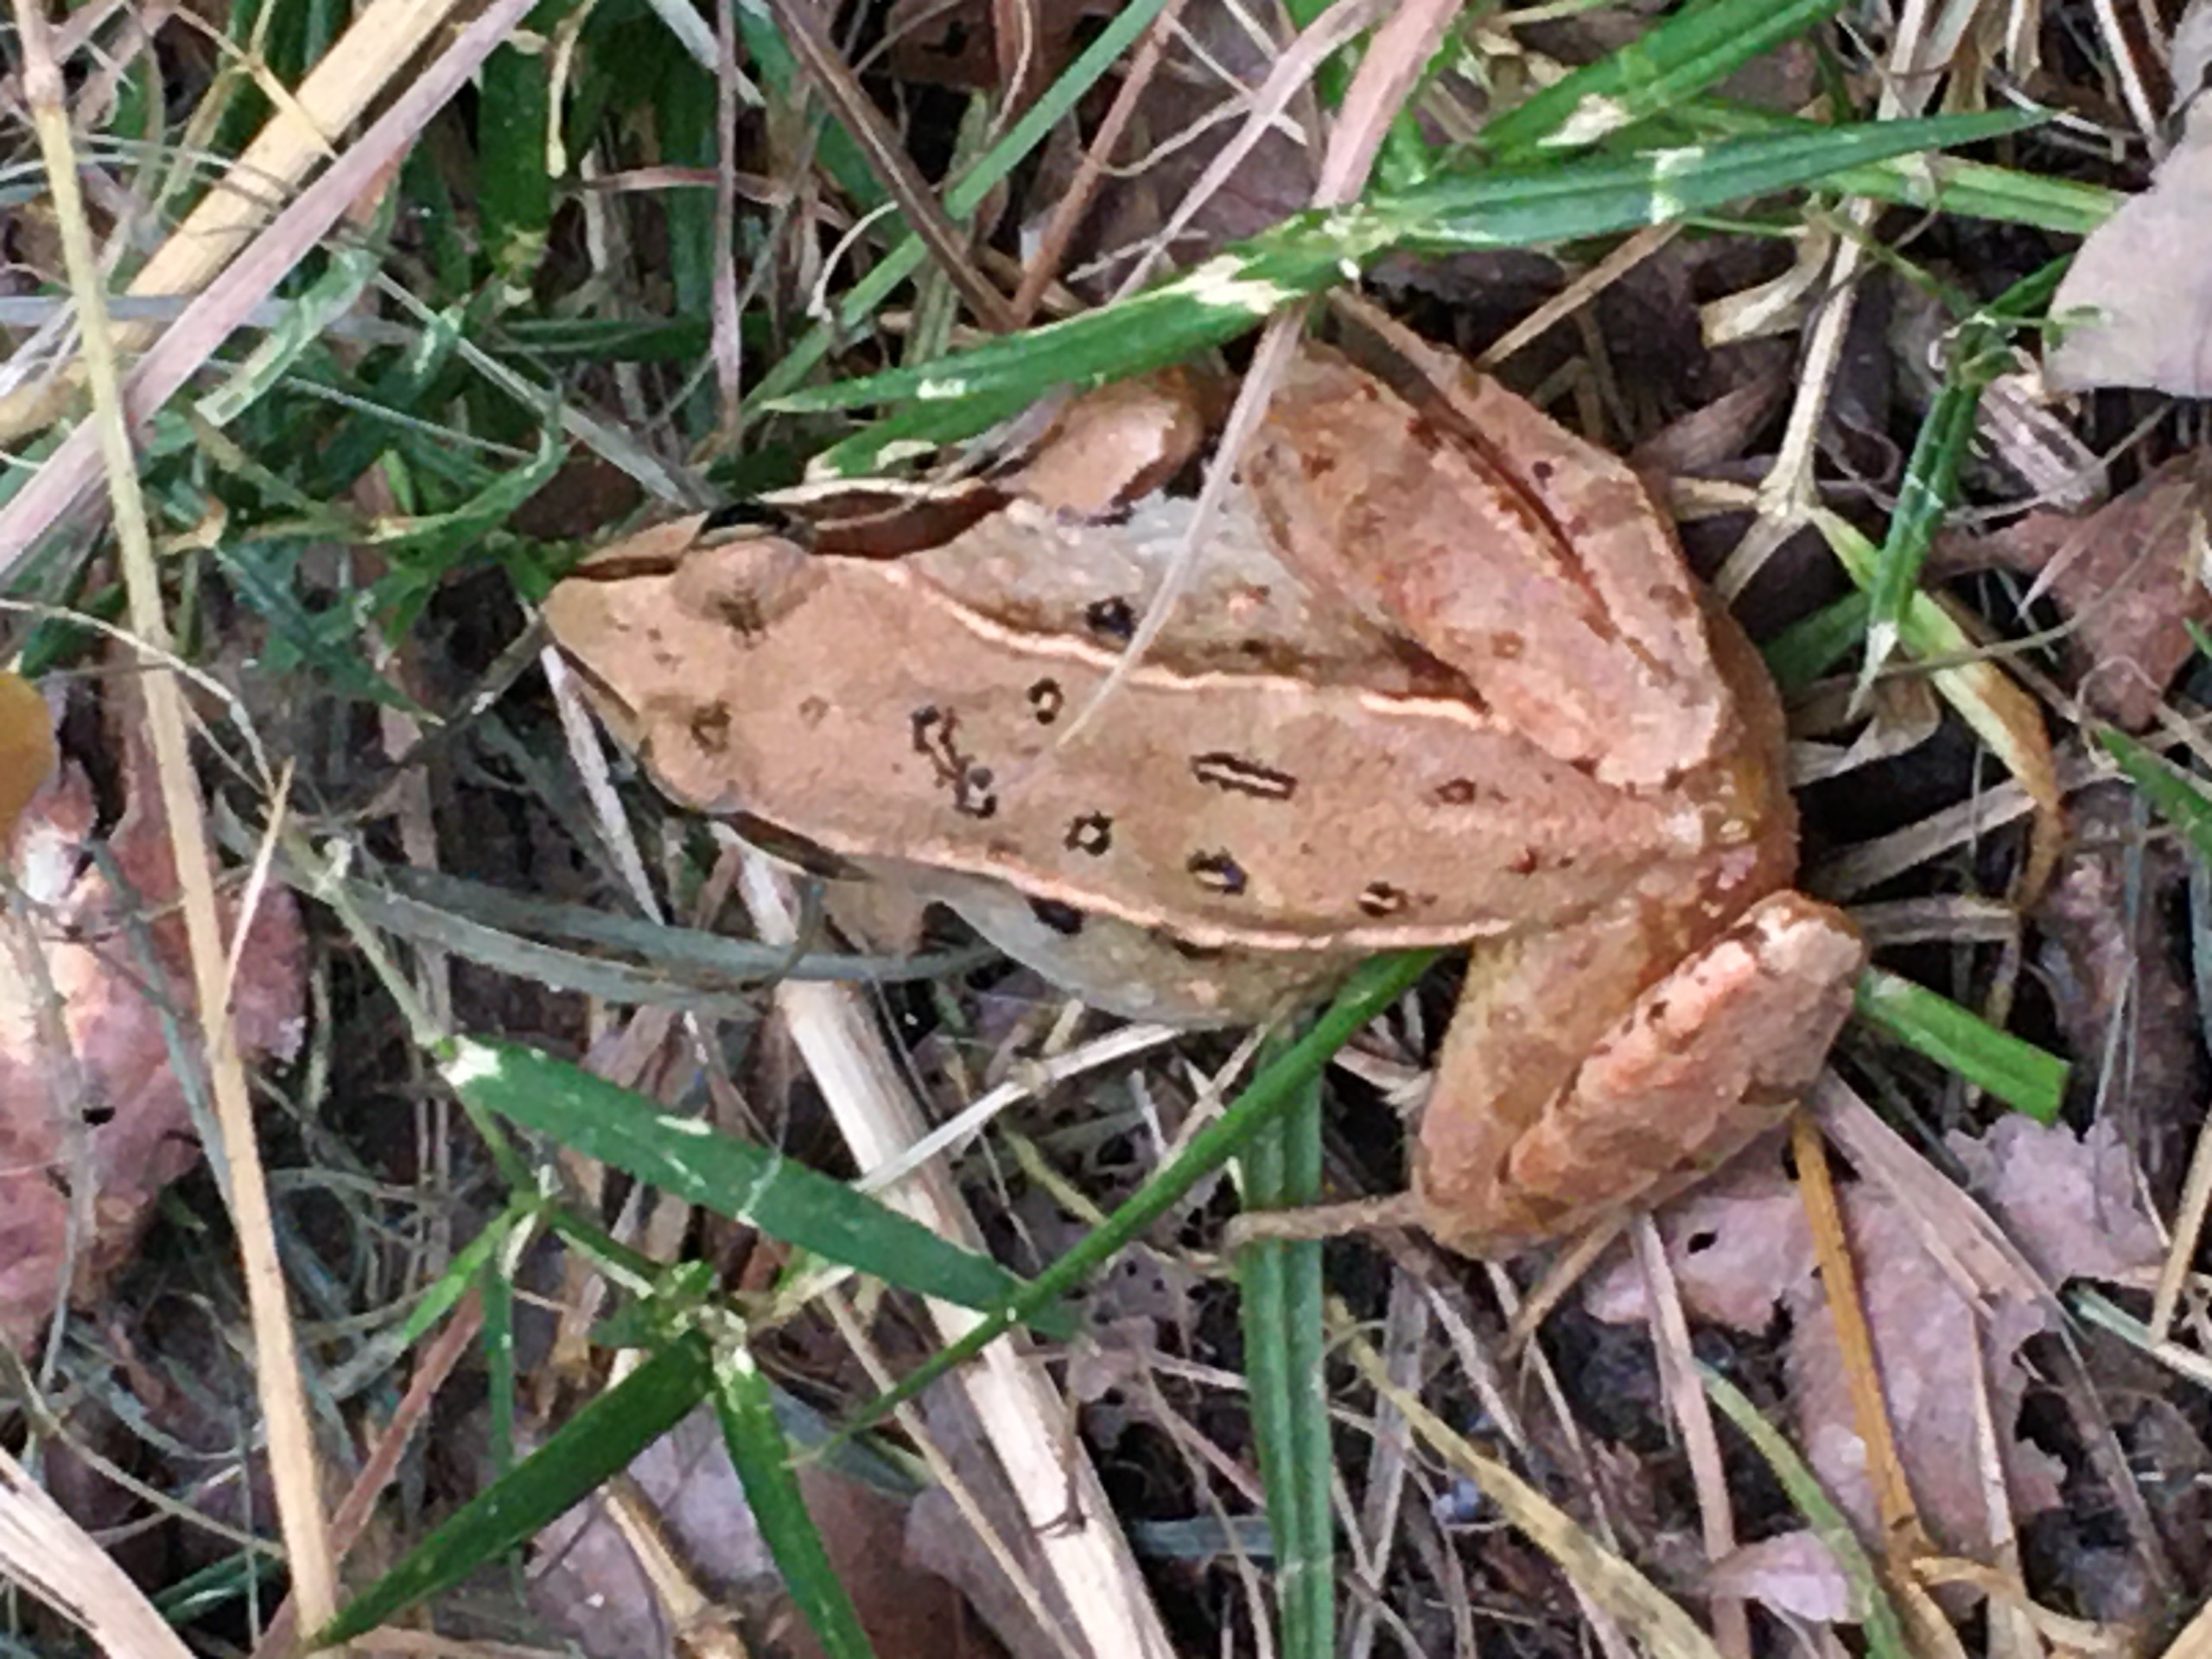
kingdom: Animalia
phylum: Chordata
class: Amphibia
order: Anura
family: Ranidae
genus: Rana
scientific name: Rana arvalis
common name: Spidssnudet frø
